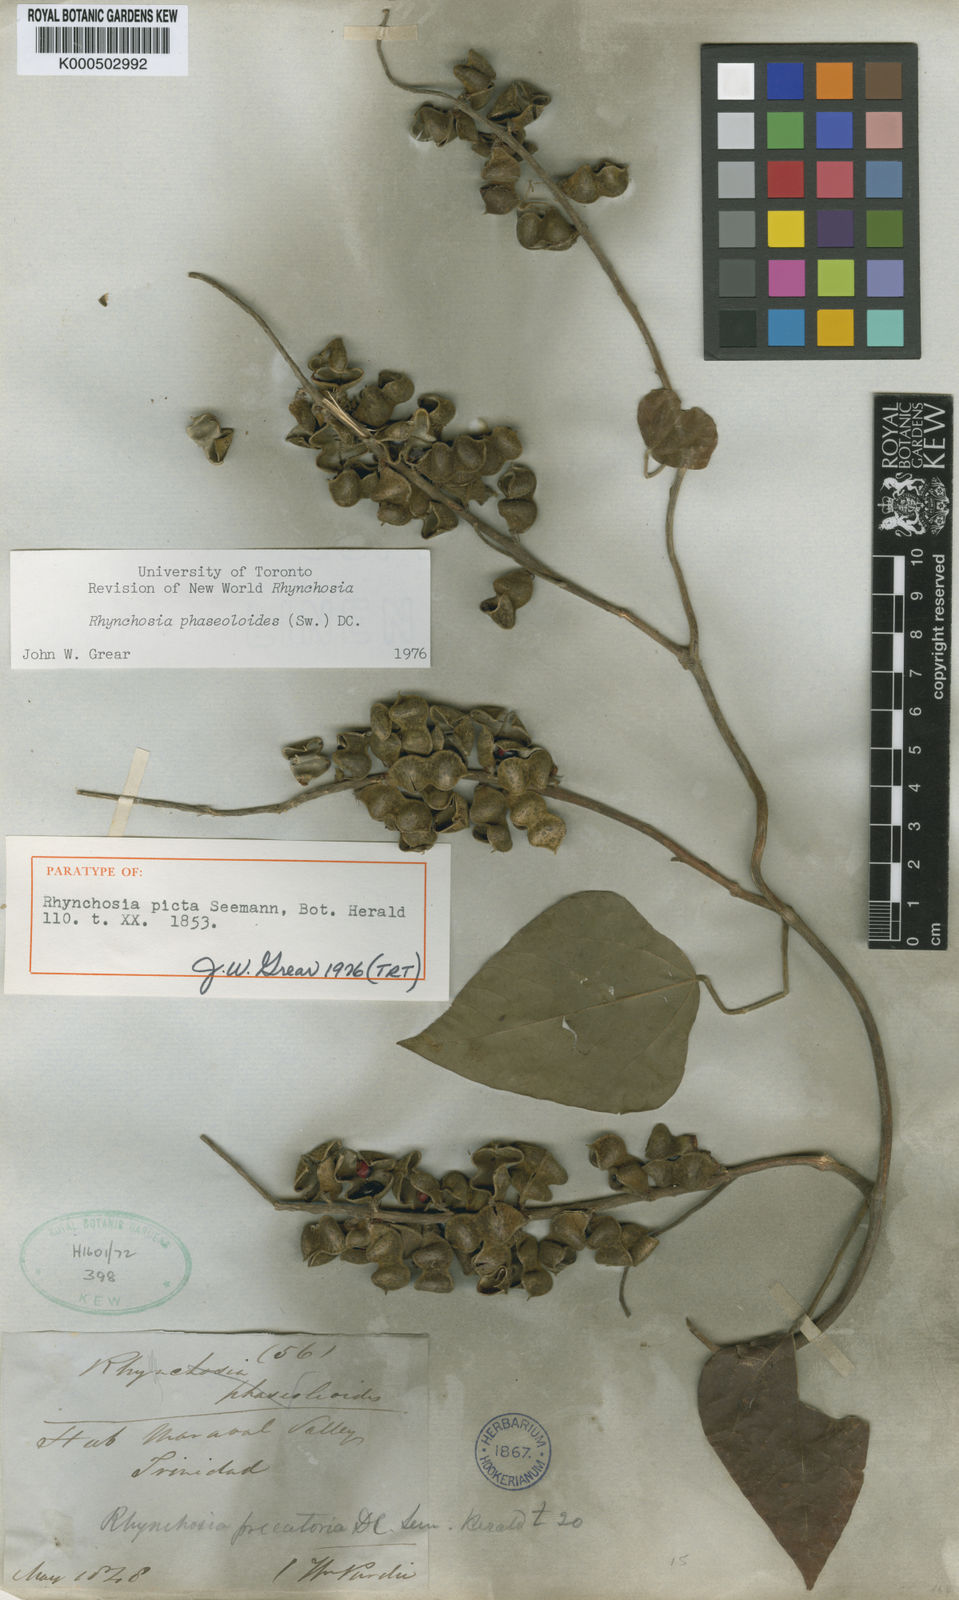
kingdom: Plantae
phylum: Tracheophyta
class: Magnoliopsida
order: Fabales
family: Fabaceae
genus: Rhynchosia
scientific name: Rhynchosia phaseoloides
